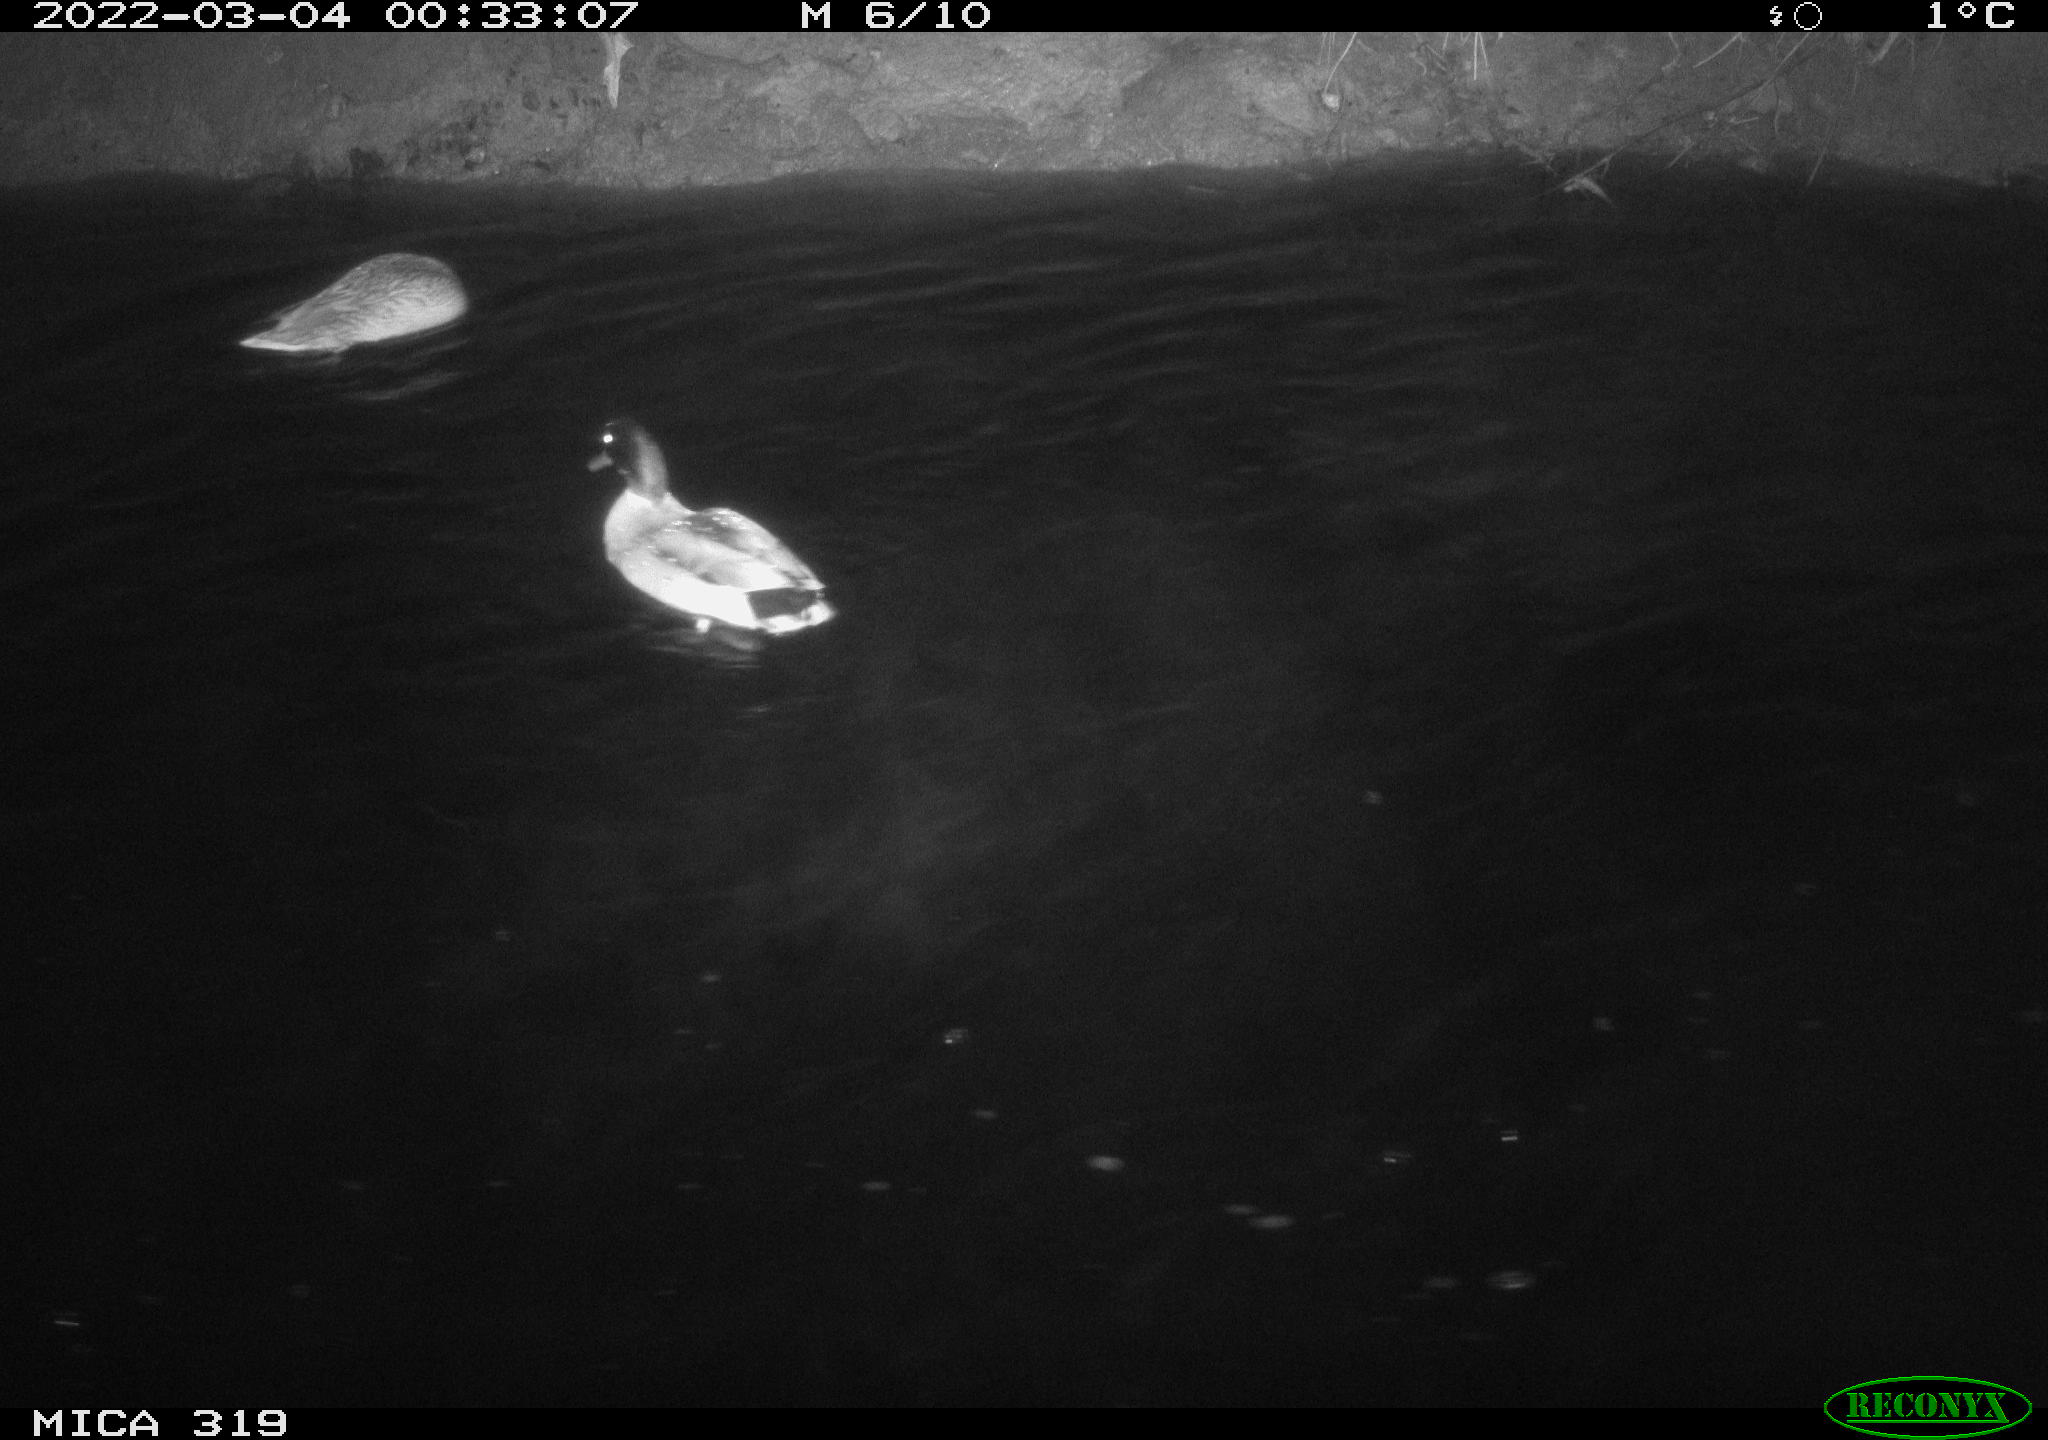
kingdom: Animalia
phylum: Chordata
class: Aves
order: Anseriformes
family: Anatidae
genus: Anas
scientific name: Anas platyrhynchos
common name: Mallard
